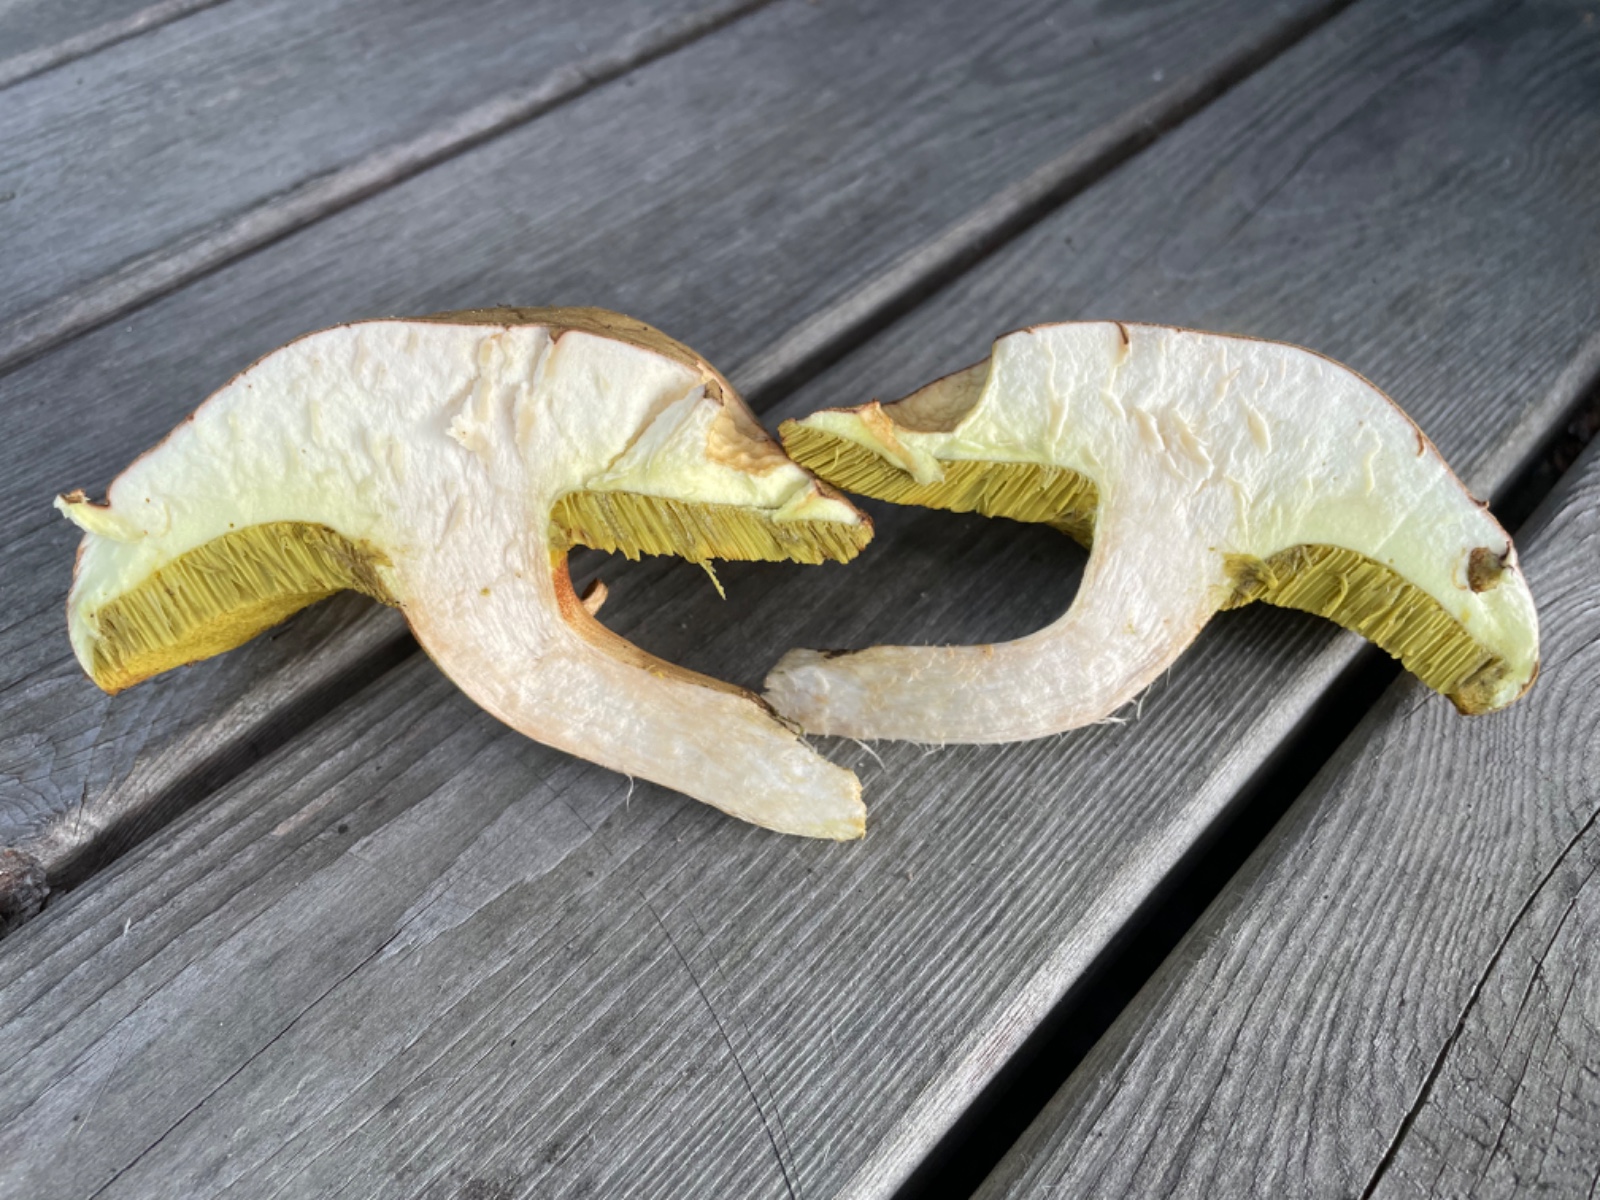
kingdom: Fungi
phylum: Basidiomycota
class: Agaricomycetes
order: Boletales
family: Boletaceae
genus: Xerocomus
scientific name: Xerocomus ferrugineus
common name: vaskeskinds-rørhat
